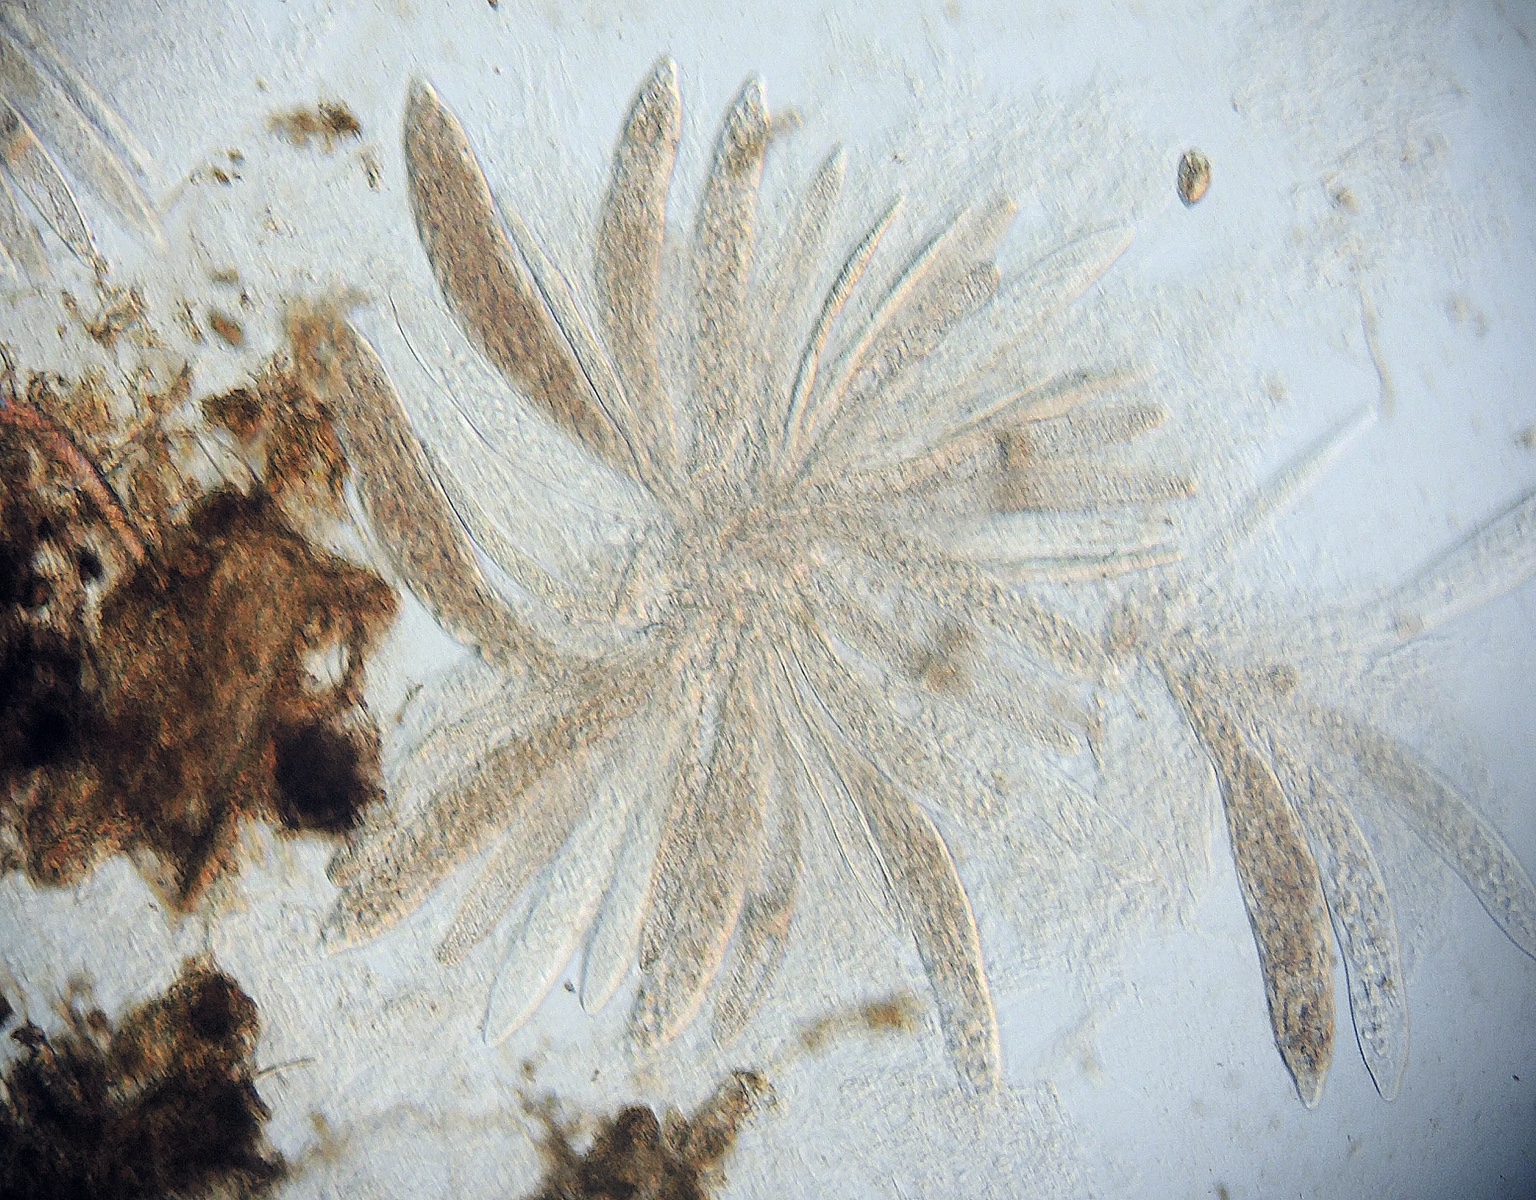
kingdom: Fungi
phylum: Ascomycota
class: Sordariomycetes
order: Sordariales
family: Naviculisporaceae
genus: Rhypophila
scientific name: Rhypophila pleiospora
